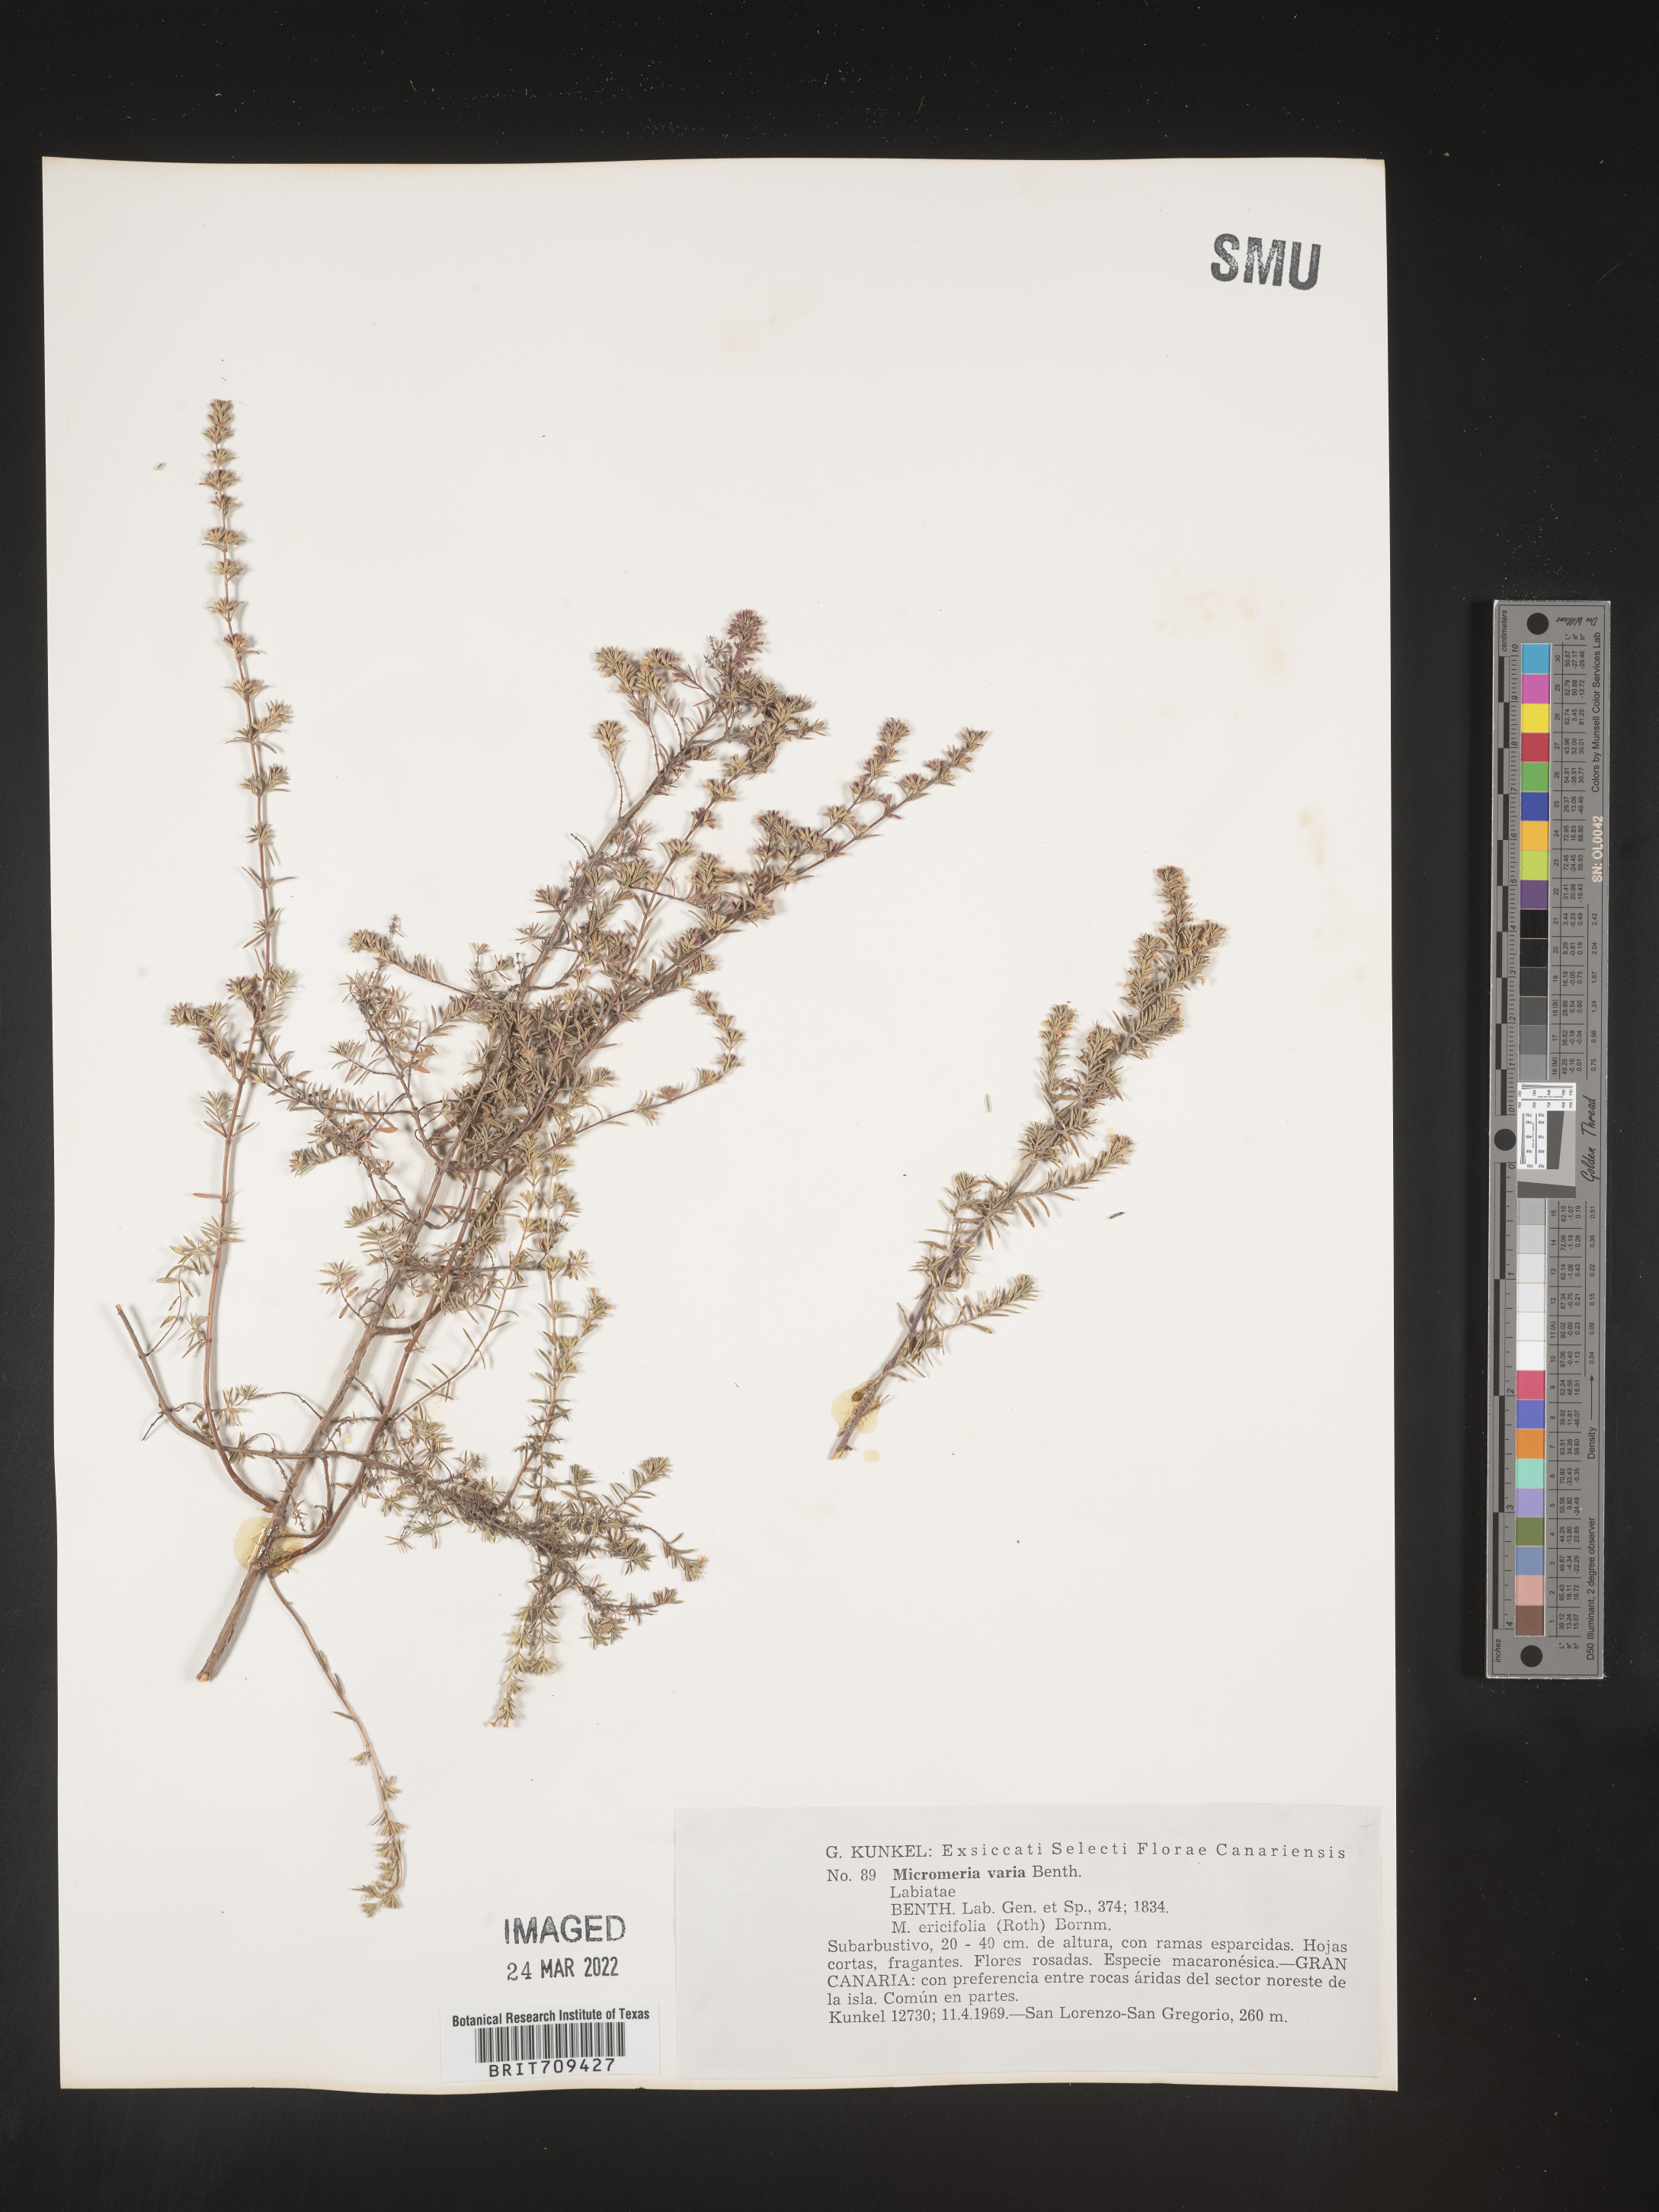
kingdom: Plantae
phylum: Tracheophyta
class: Magnoliopsida
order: Lamiales
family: Lamiaceae
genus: Micromeria
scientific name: Micromeria
